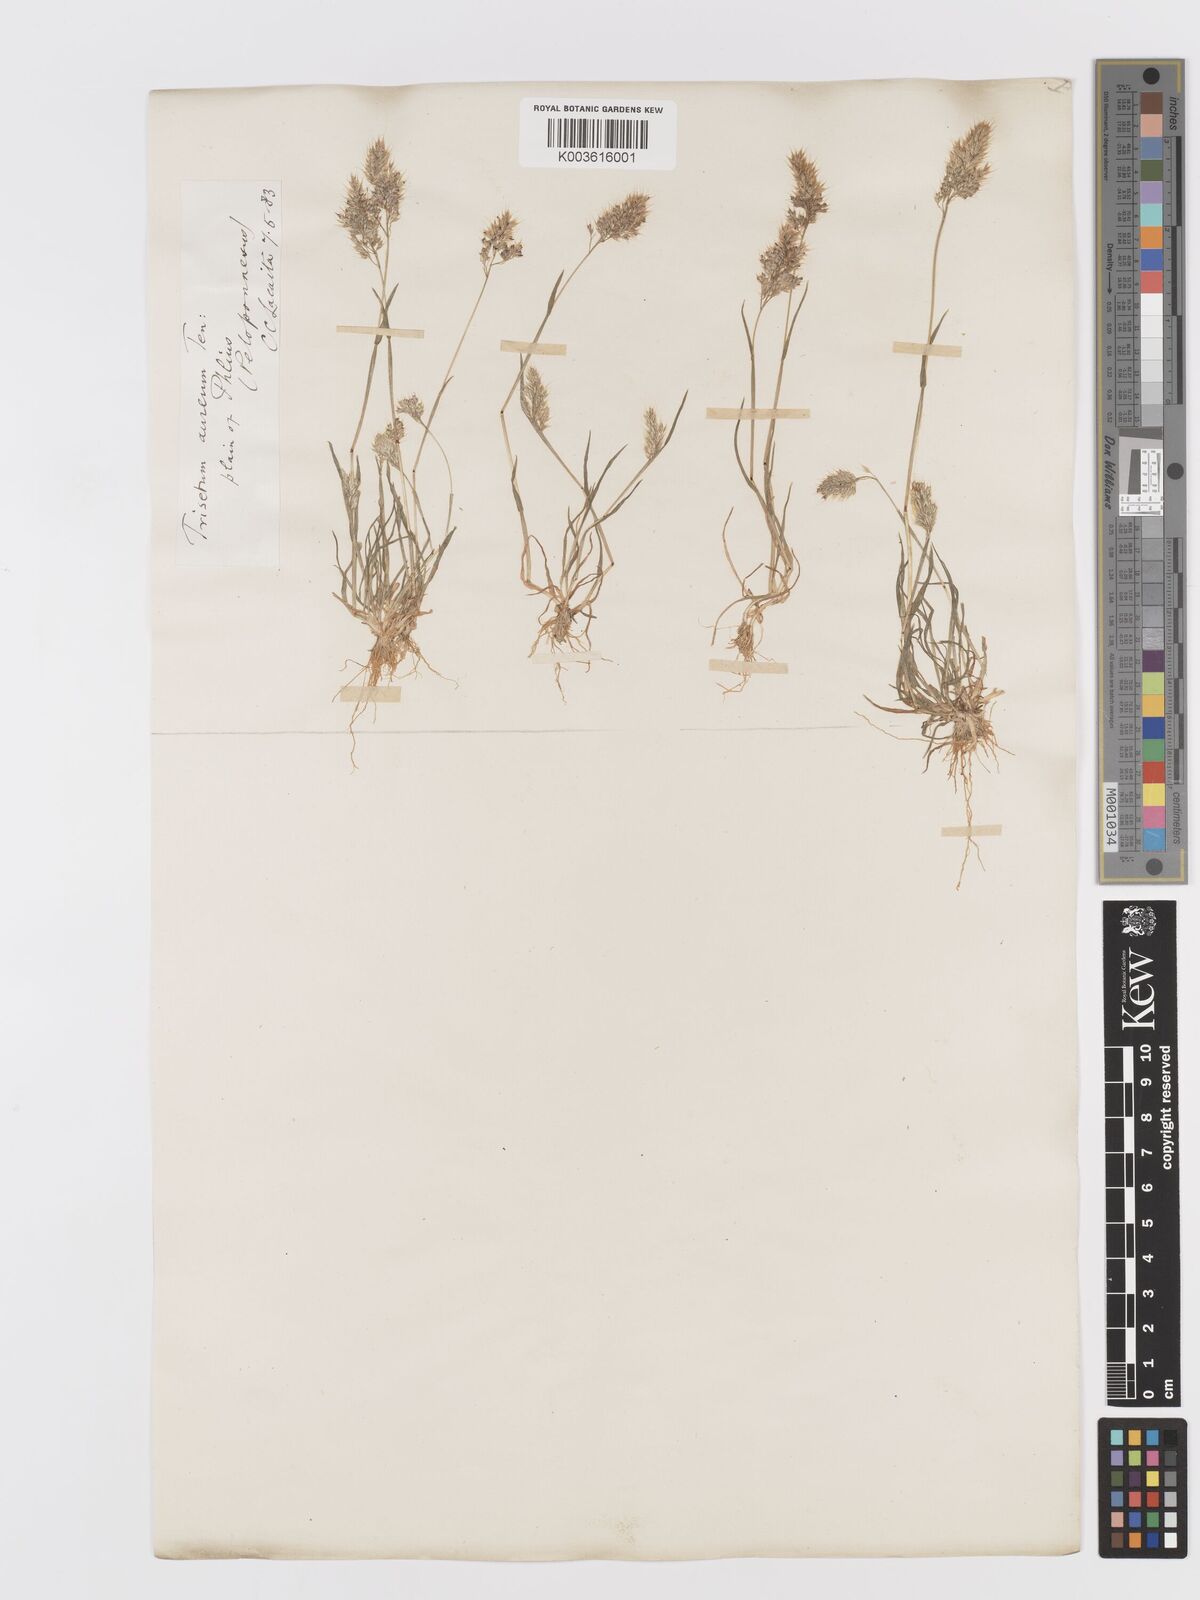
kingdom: Plantae
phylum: Tracheophyta
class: Liliopsida
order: Poales
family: Poaceae
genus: Trisetaria
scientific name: Trisetaria aurea
